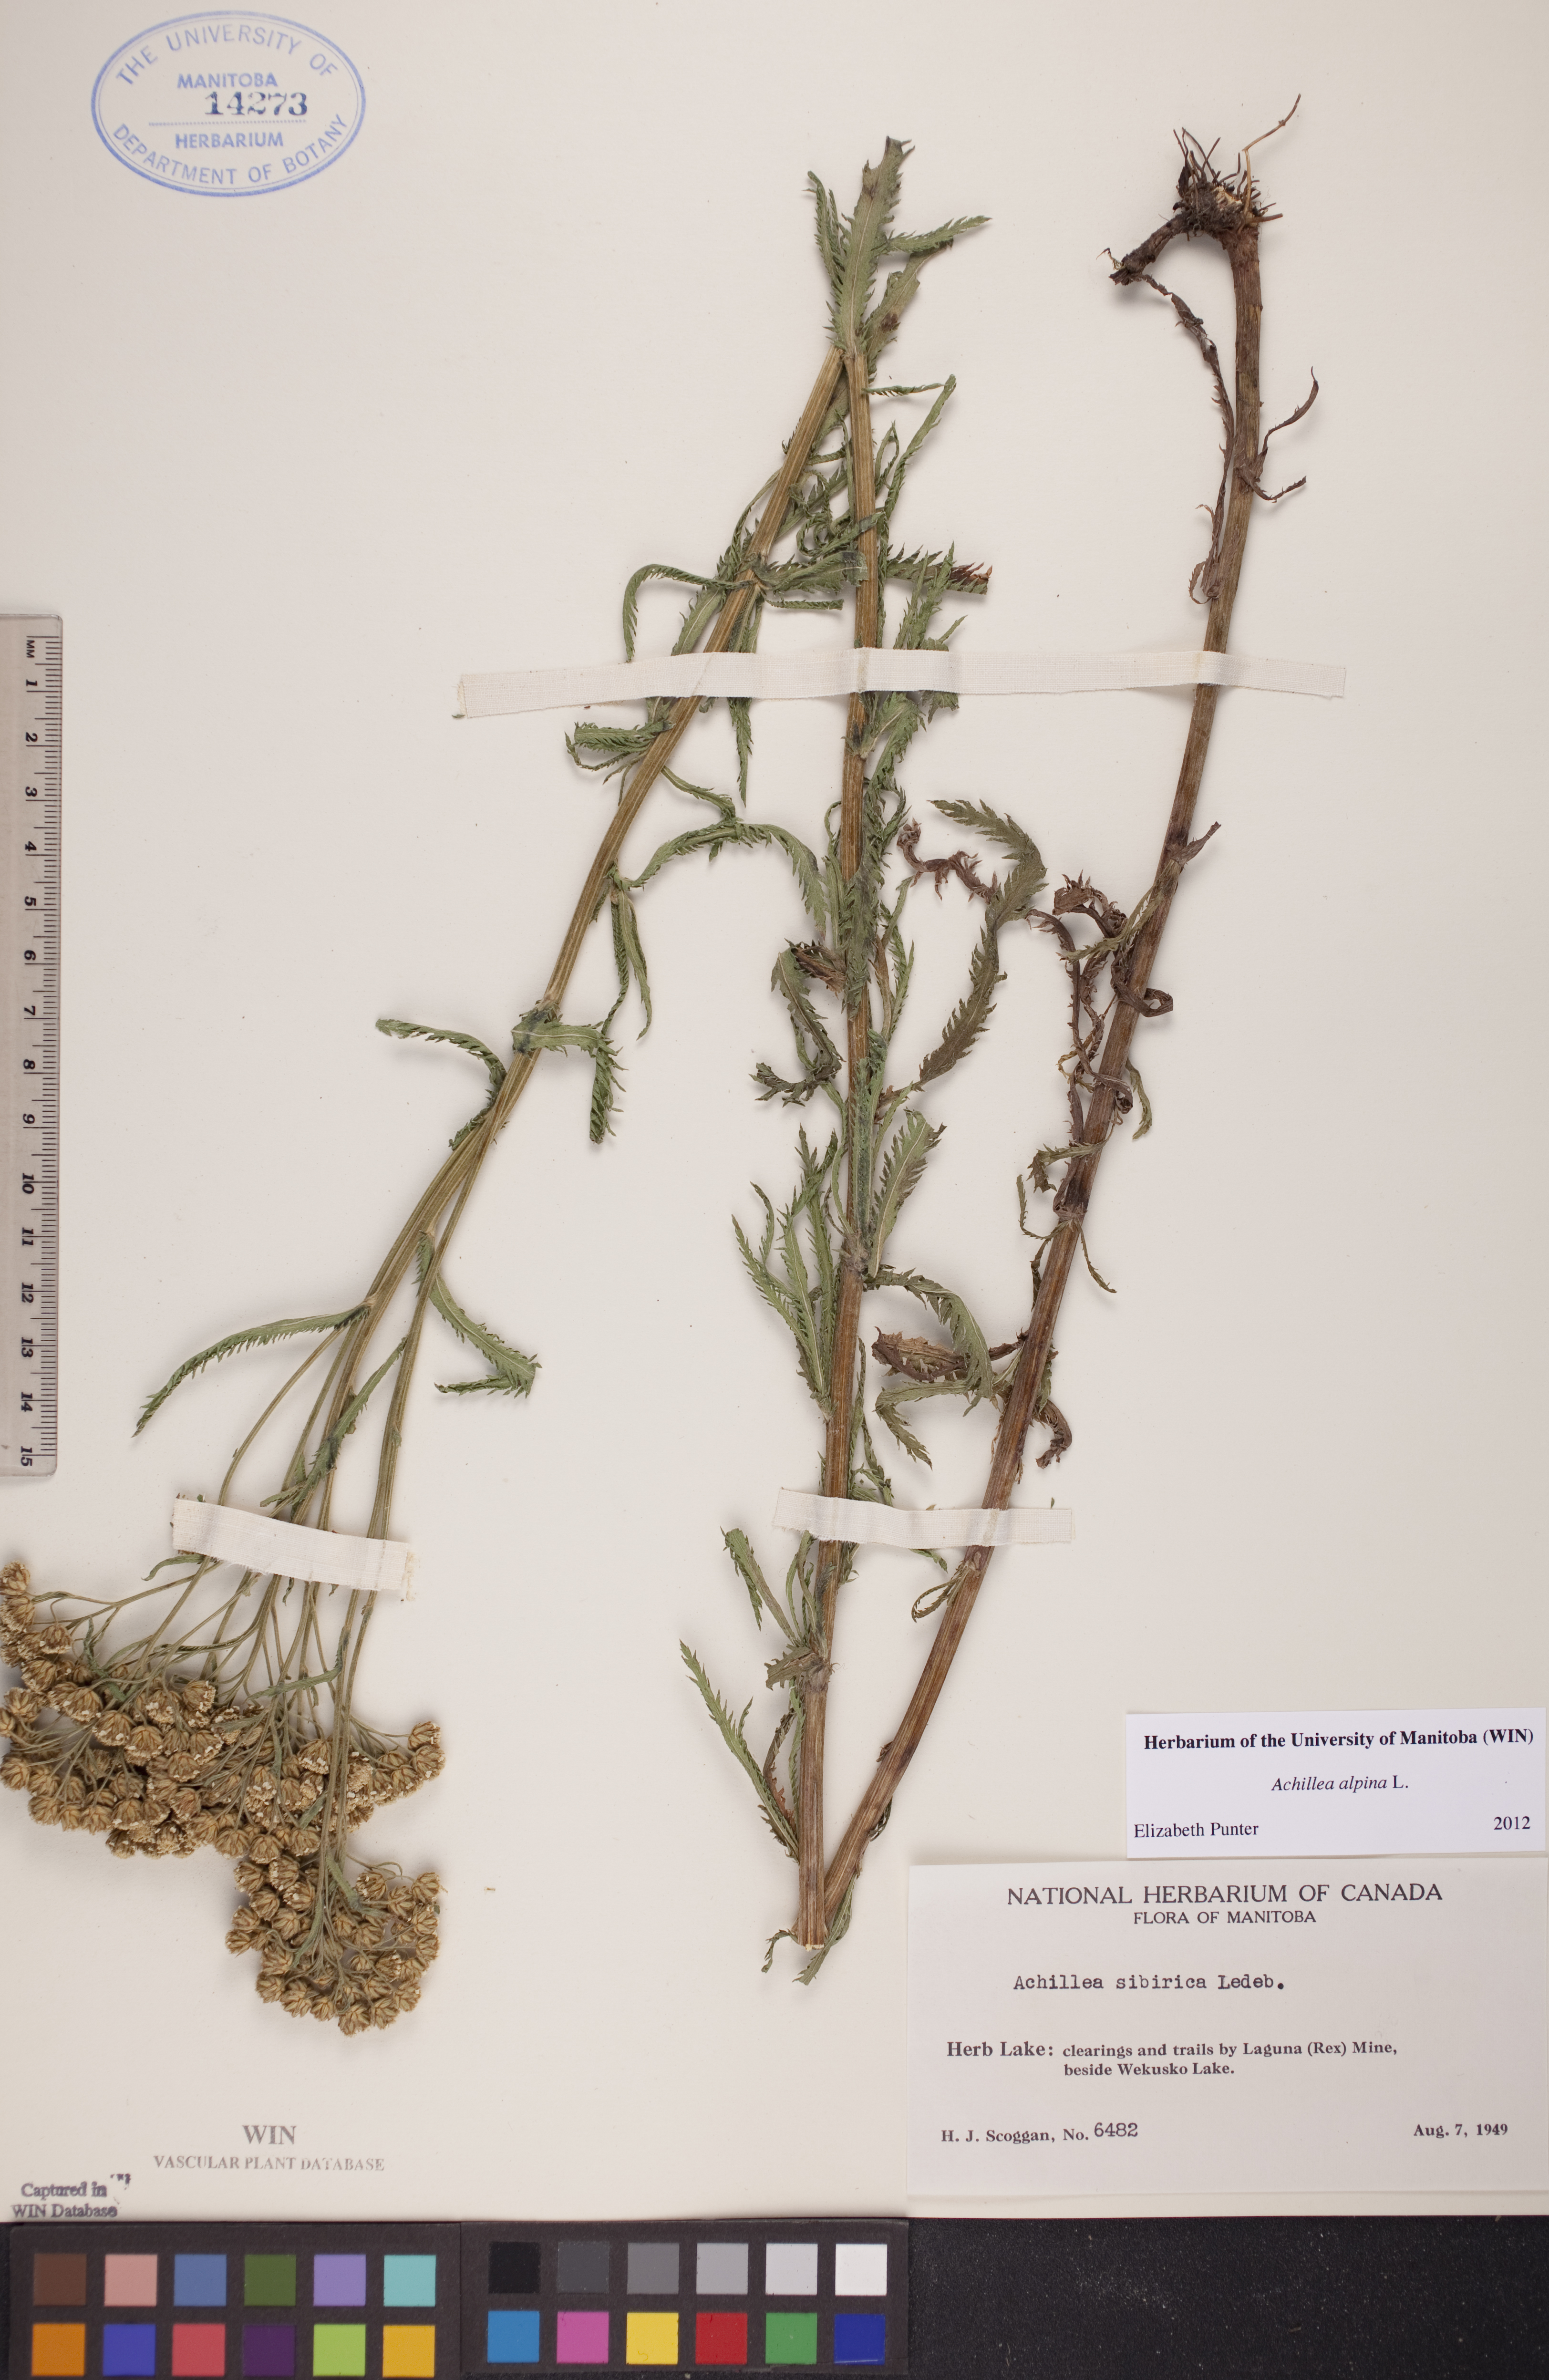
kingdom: Plantae
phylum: Tracheophyta
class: Magnoliopsida
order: Asterales
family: Asteraceae
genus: Achillea
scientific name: Achillea alpina
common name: Siberian yarrow
